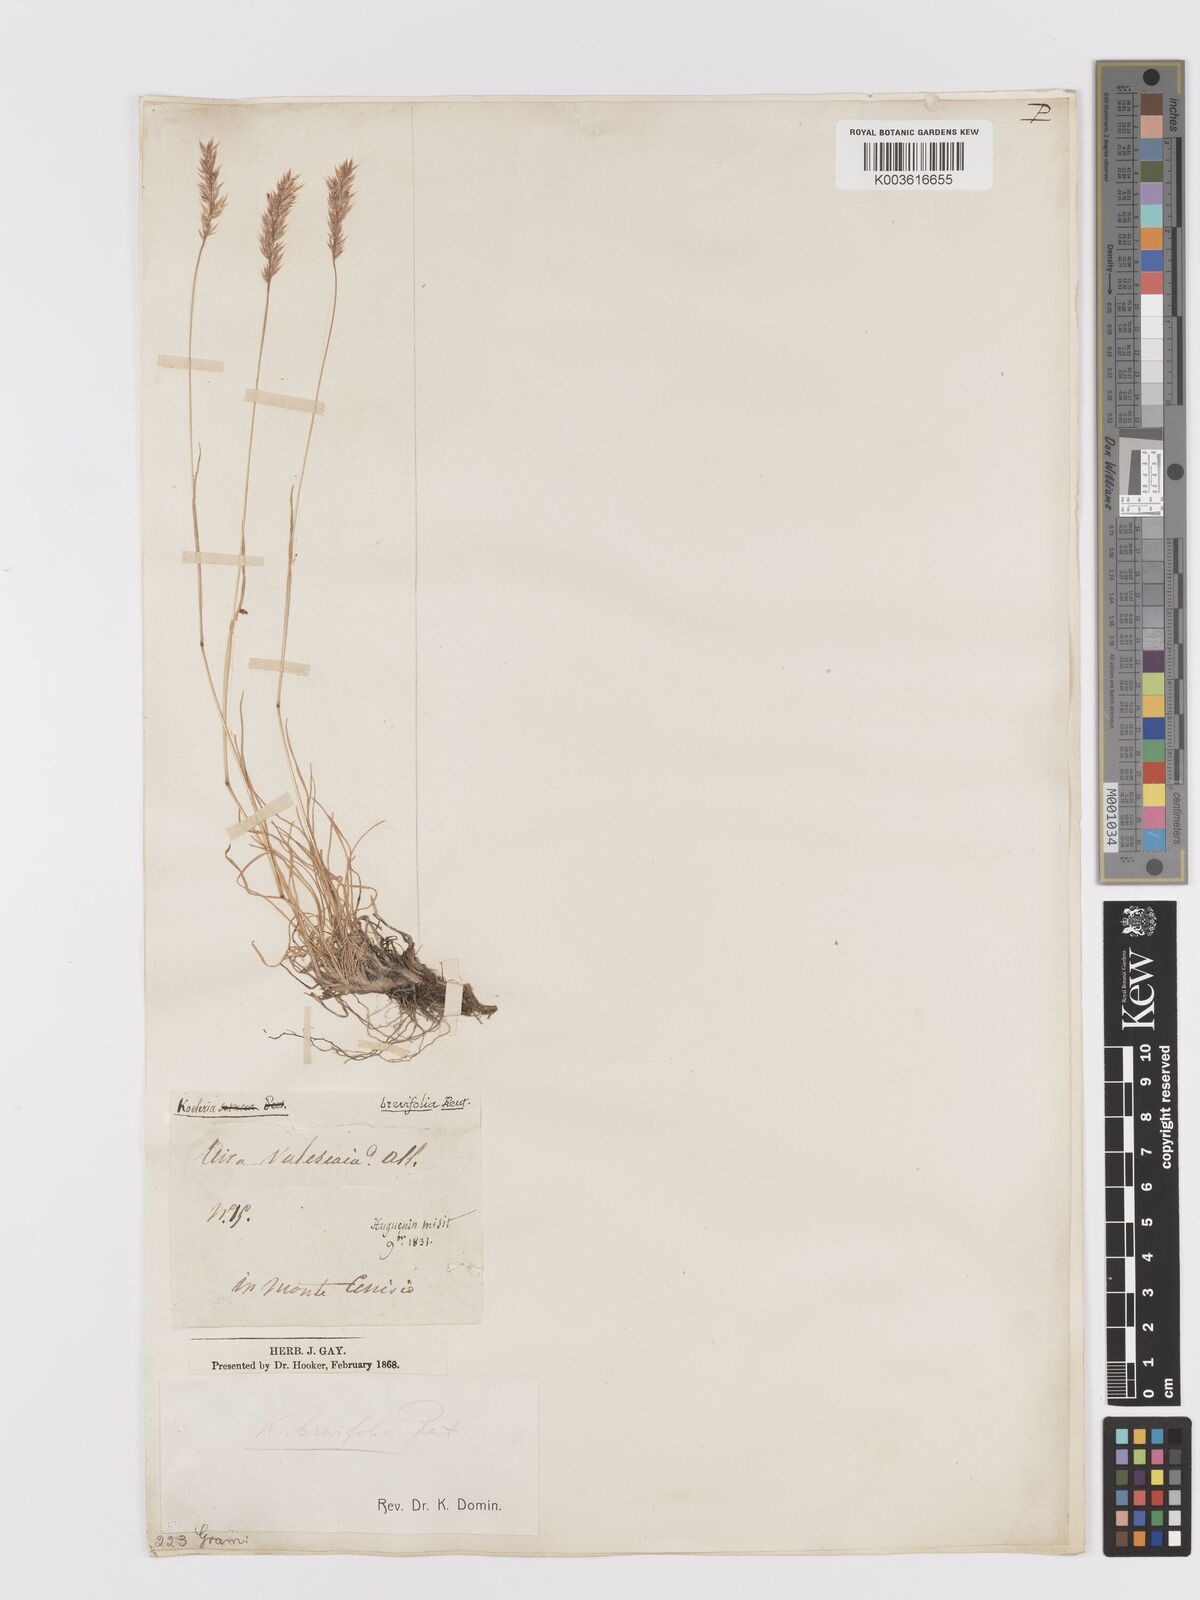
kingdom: Plantae
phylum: Tracheophyta
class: Liliopsida
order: Poales
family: Poaceae
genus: Koeleria
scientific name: Koeleria cenisia
